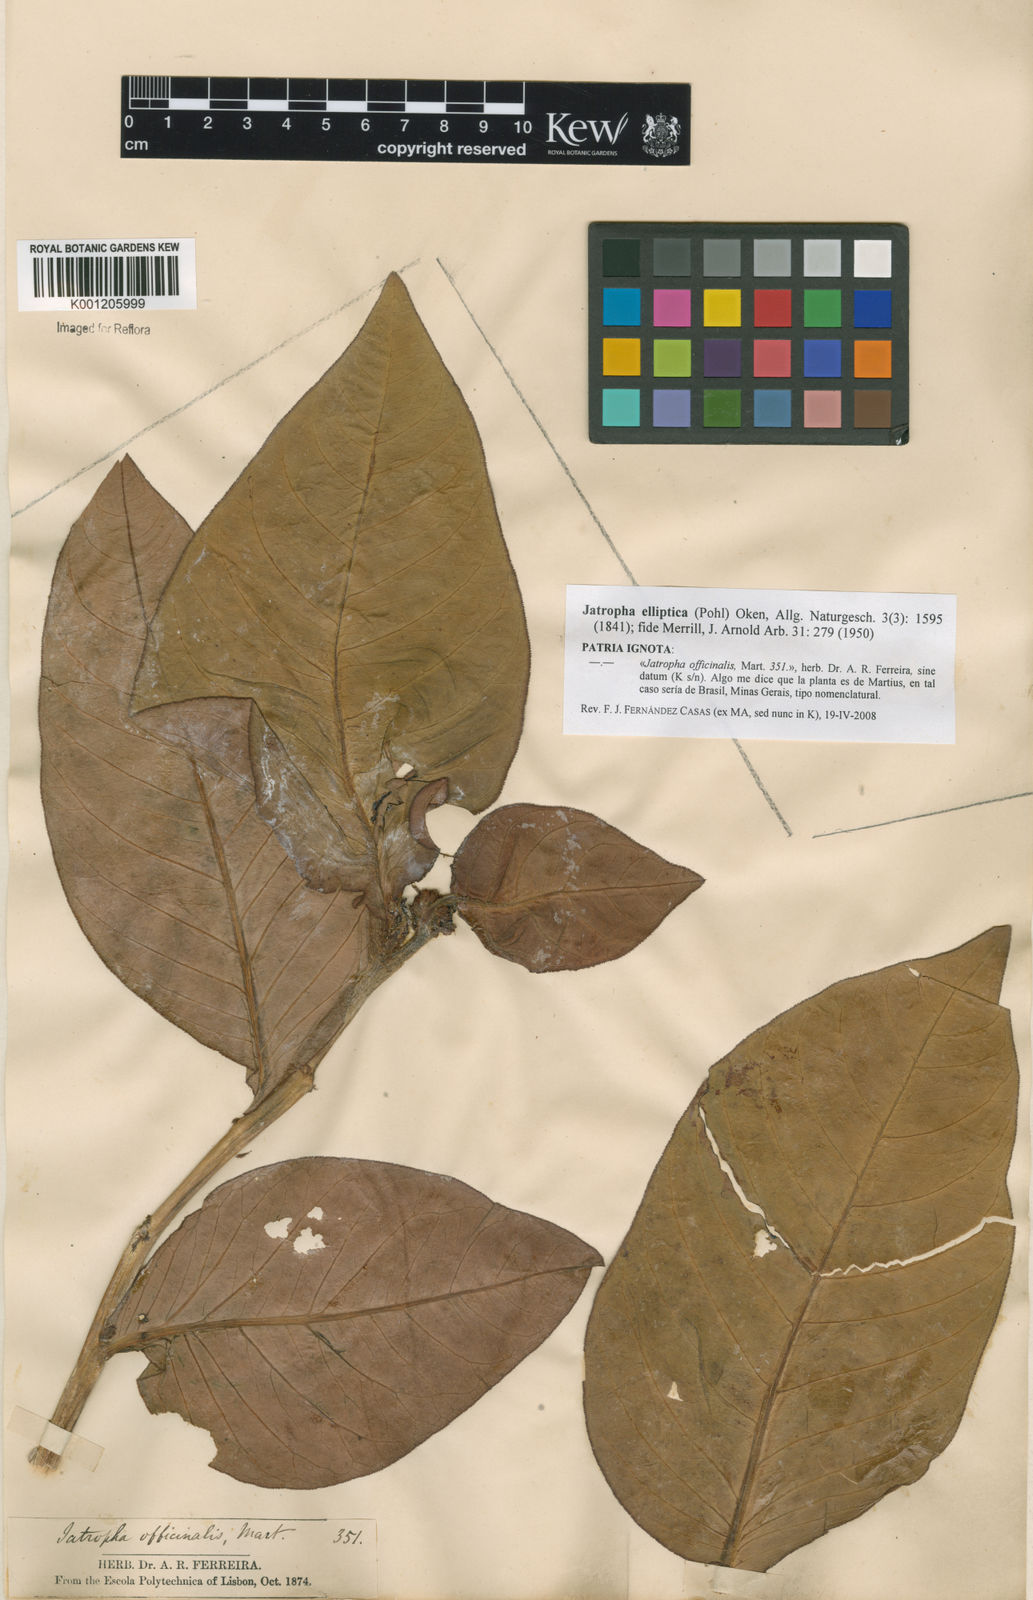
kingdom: Plantae
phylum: Tracheophyta
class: Magnoliopsida
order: Malpighiales
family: Euphorbiaceae
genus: Jatropha
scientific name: Jatropha elliptica
